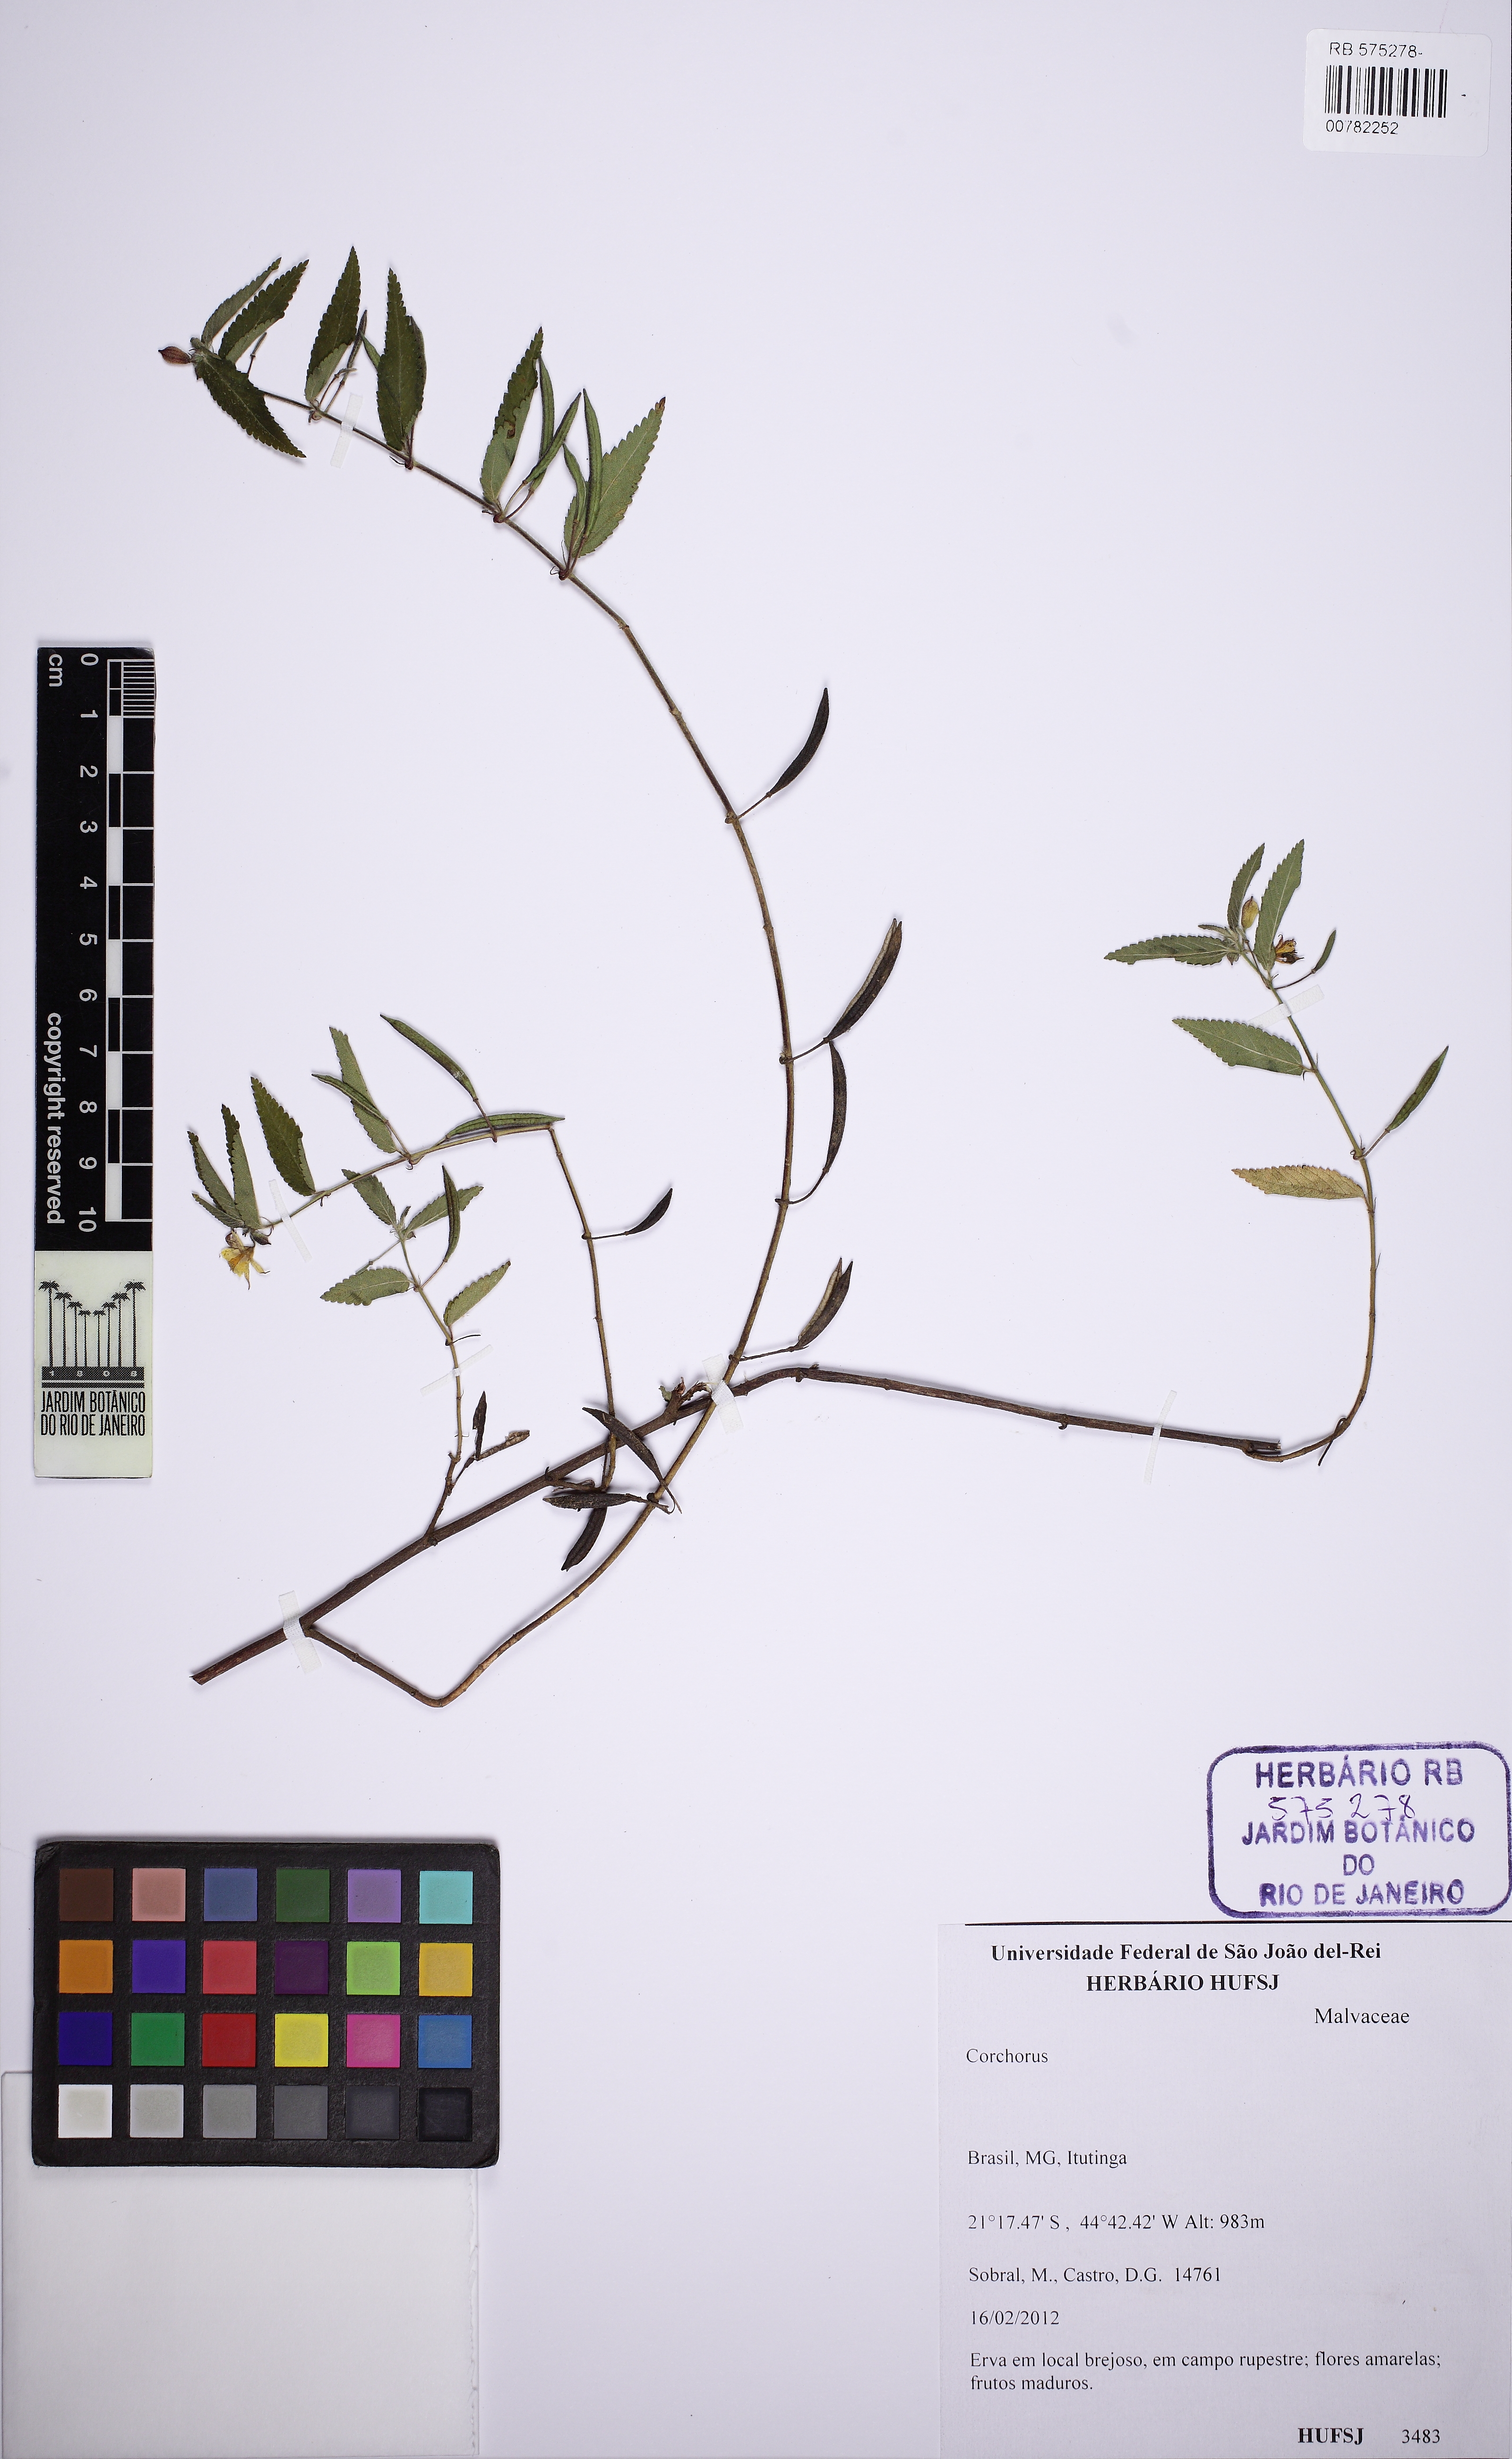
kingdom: Plantae
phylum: Tracheophyta
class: Magnoliopsida
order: Malvales
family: Malvaceae
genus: Corchorus
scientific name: Corchorus
